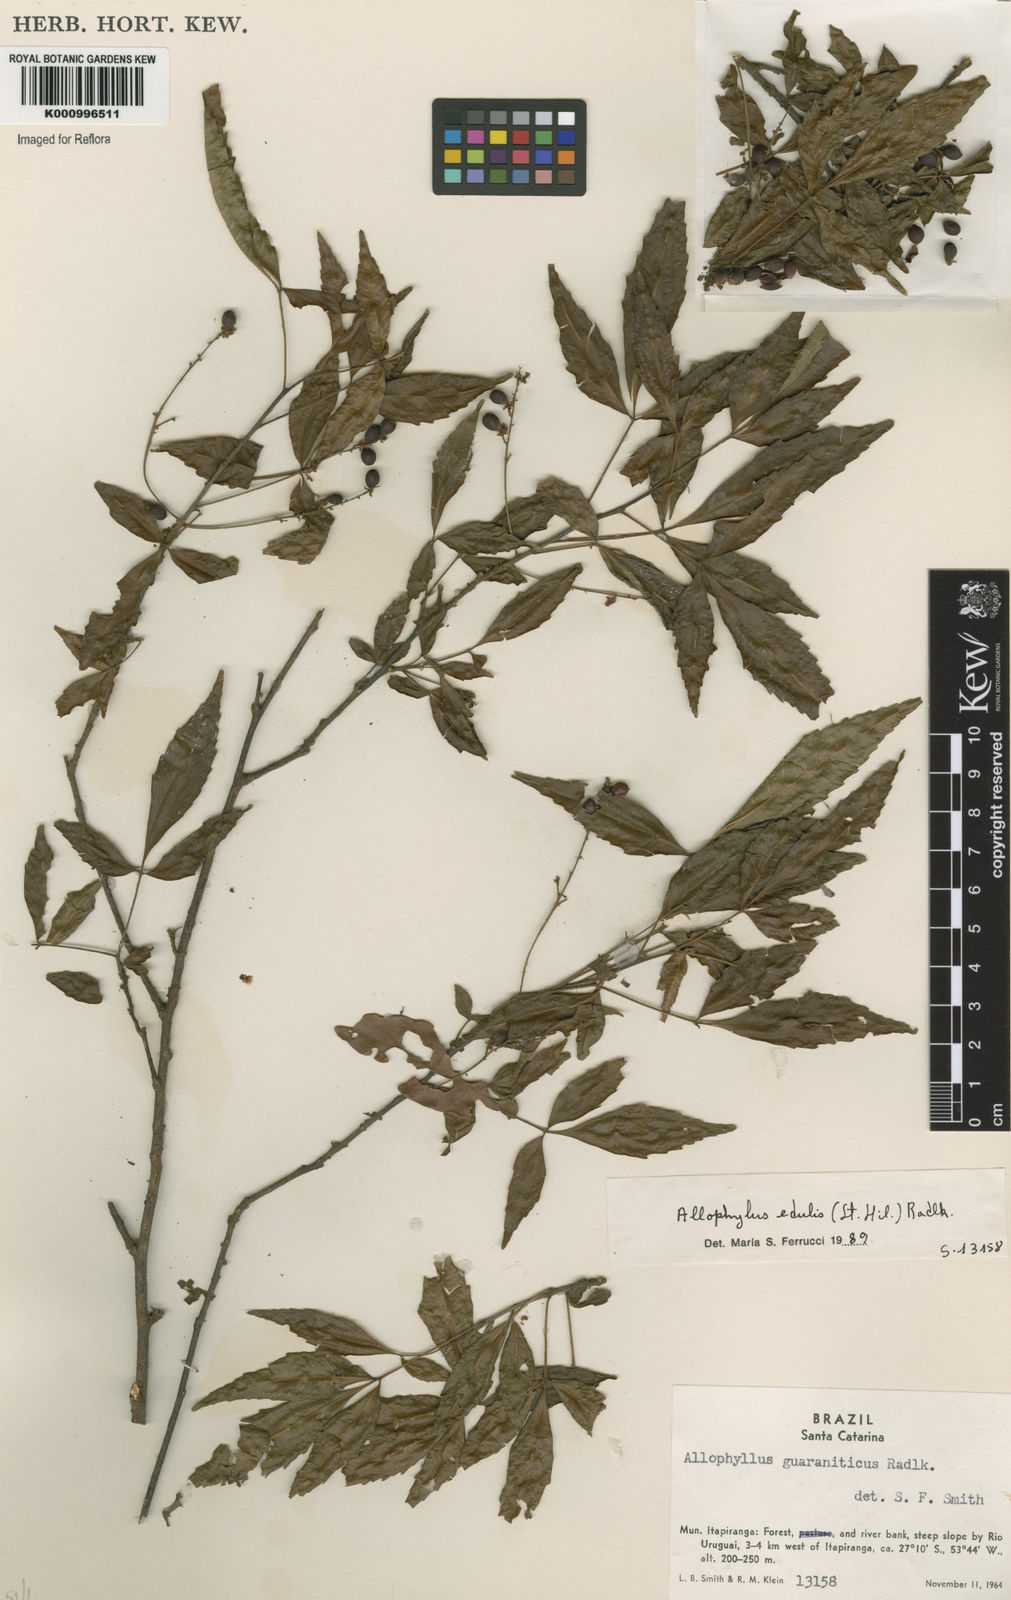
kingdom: Plantae
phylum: Tracheophyta
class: Magnoliopsida
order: Sapindales
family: Sapindaceae
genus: Allophylus
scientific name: Allophylus edulis
